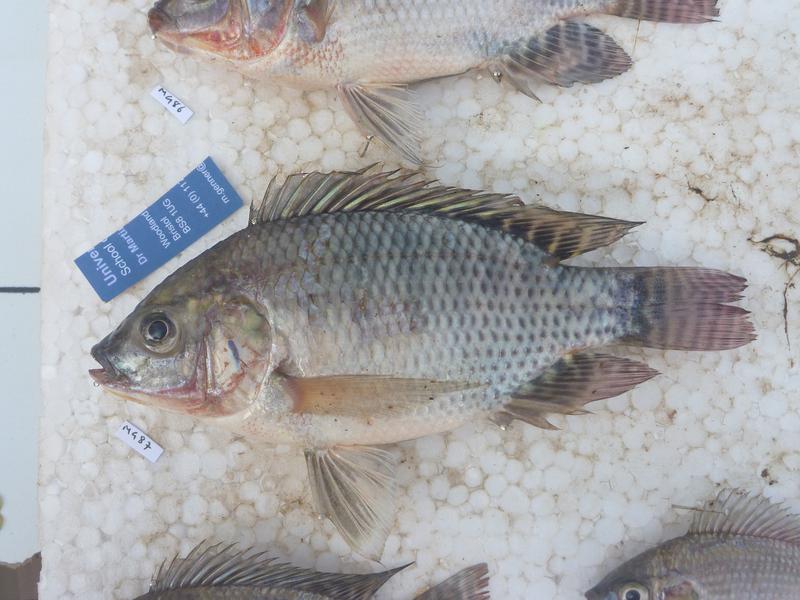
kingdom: Animalia
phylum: Chordata
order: Perciformes
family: Cichlidae
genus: Oreochromis
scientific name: Oreochromis niloticus
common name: Nile tilapia
